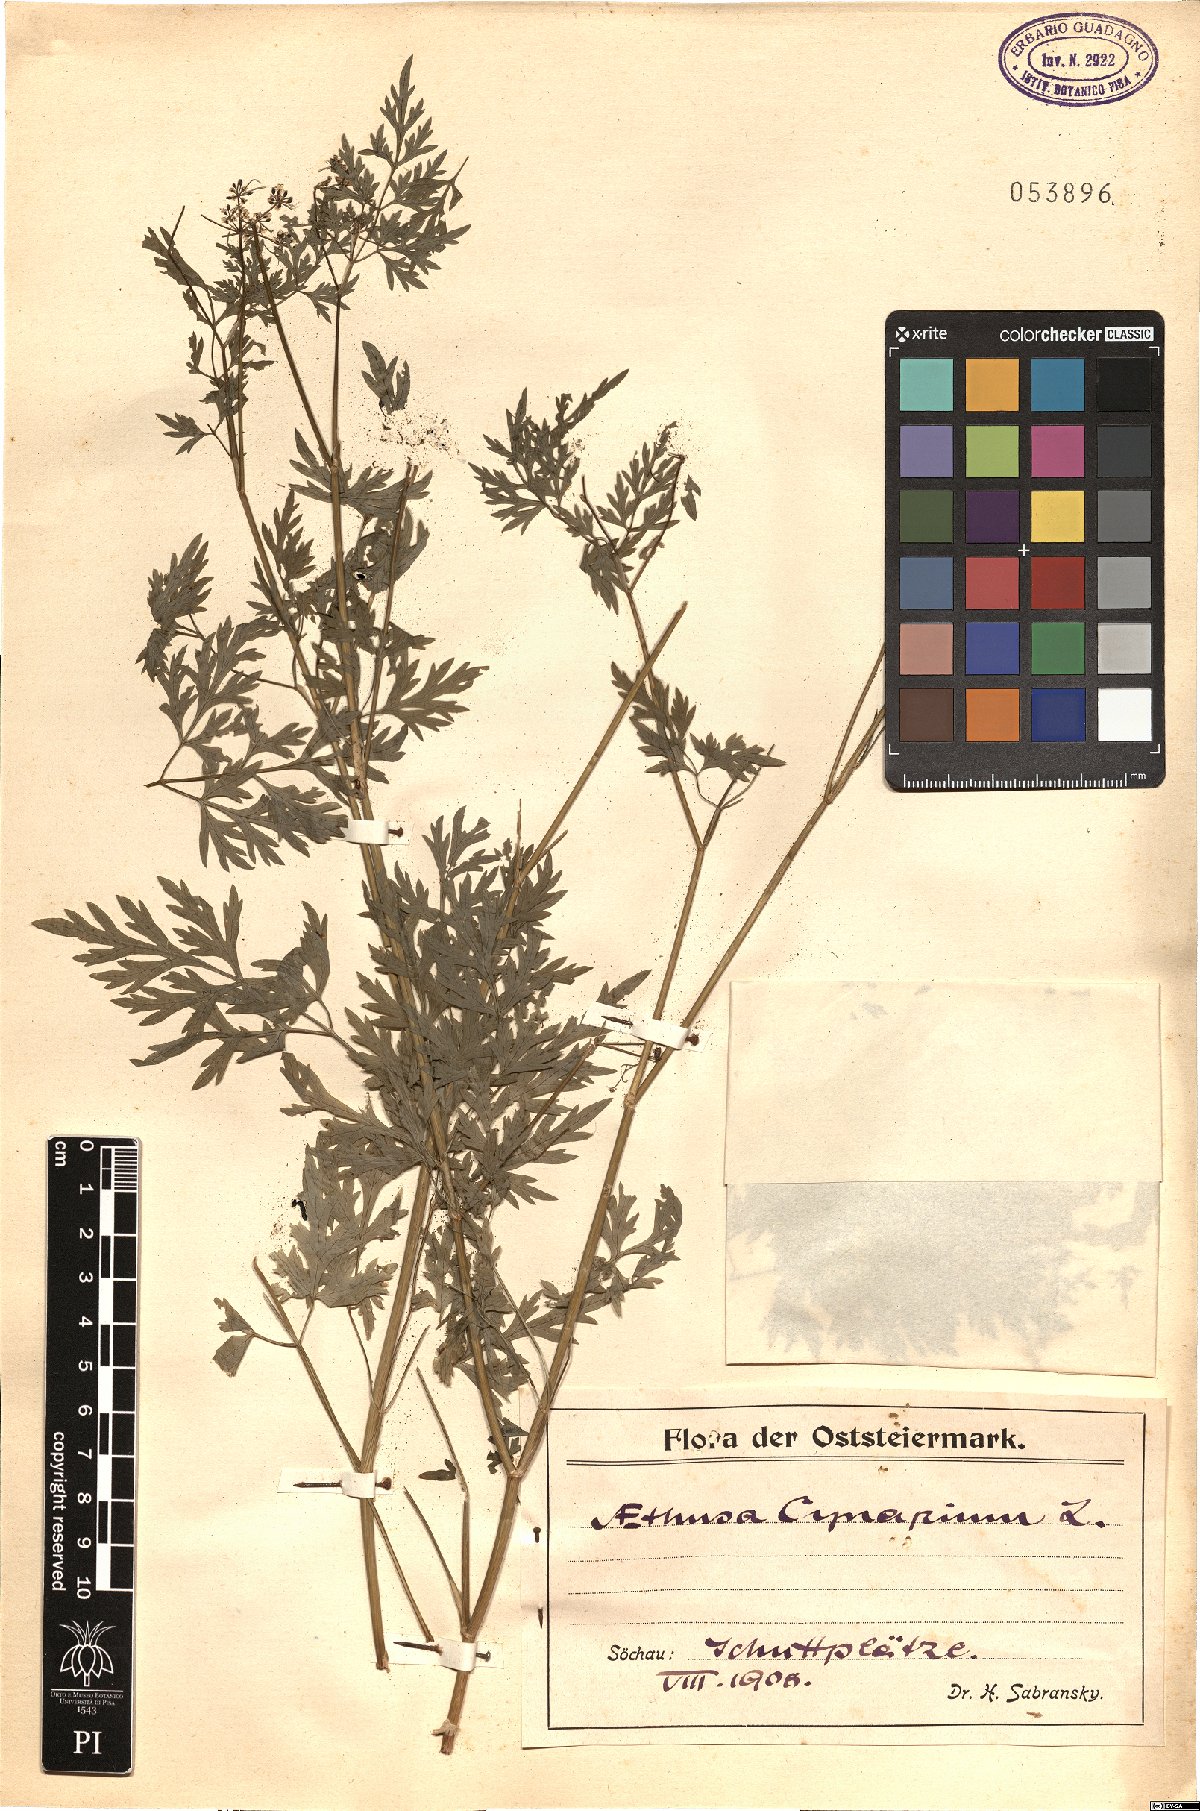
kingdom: Plantae
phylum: Tracheophyta
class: Magnoliopsida
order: Apiales
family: Apiaceae
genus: Aethusa
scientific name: Aethusa cynapium
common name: Fool's parsley
